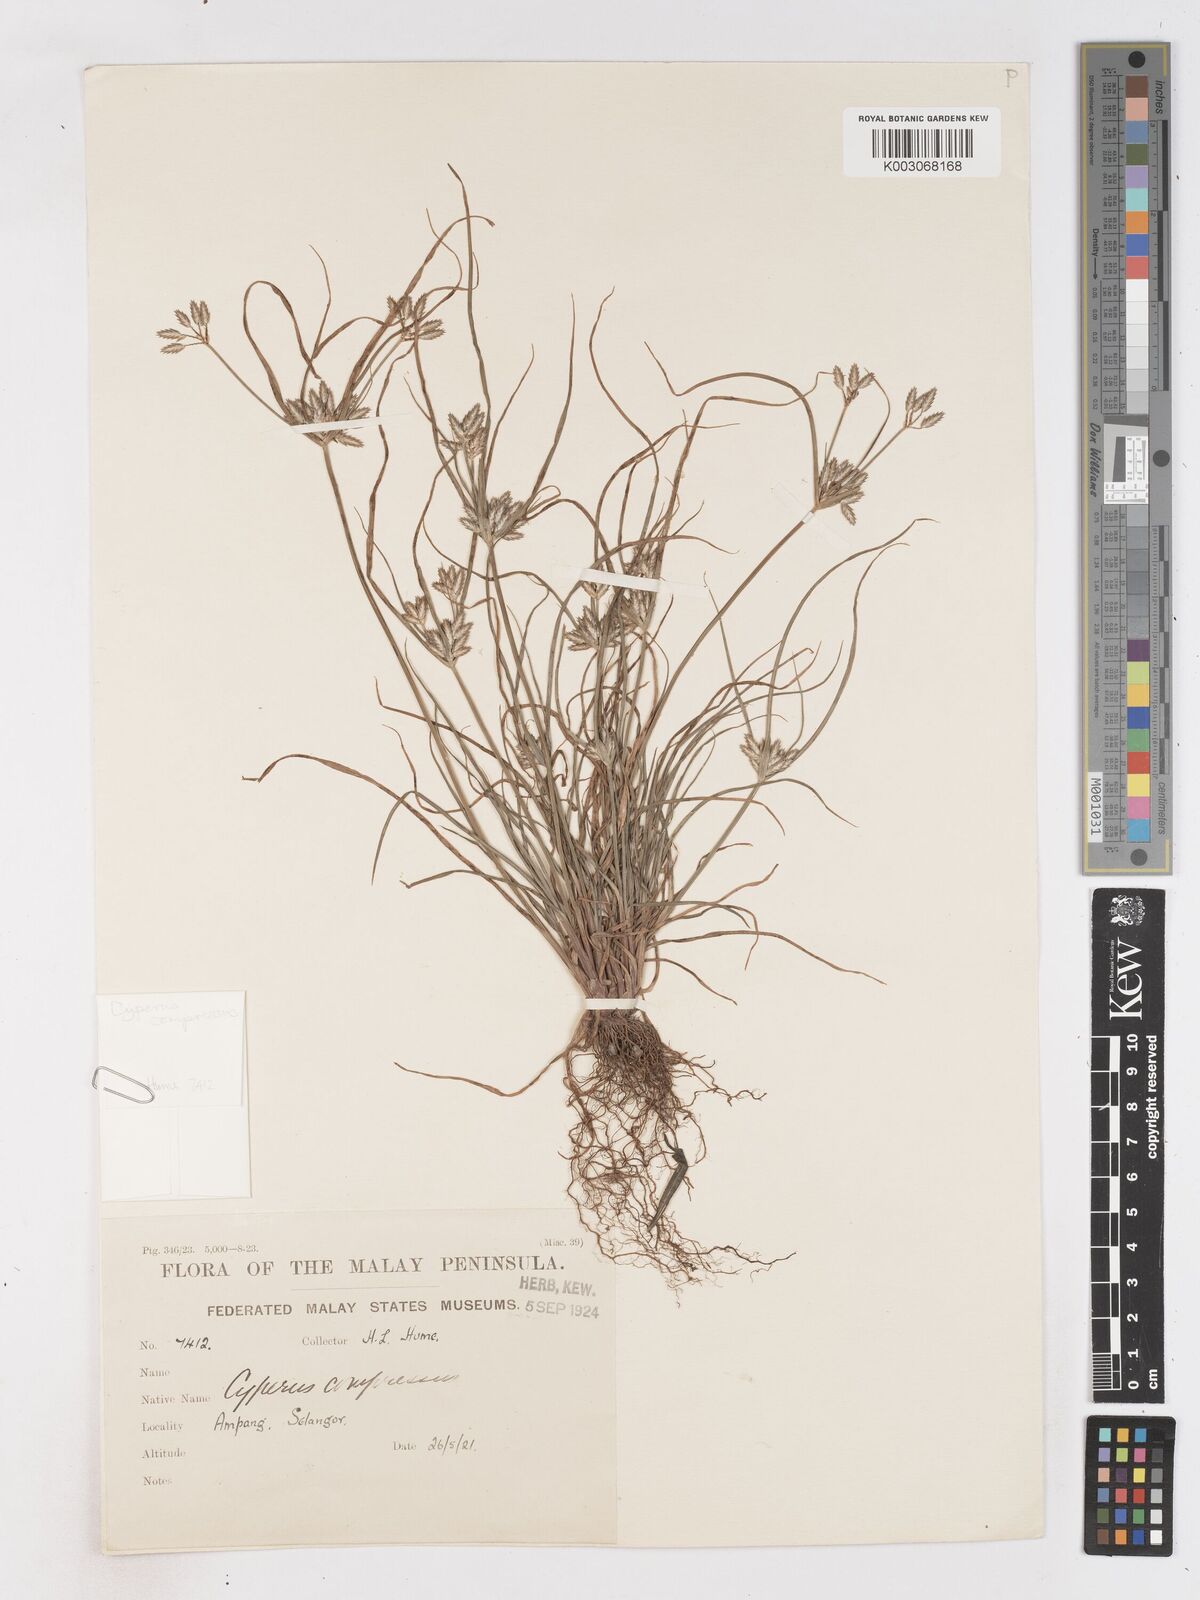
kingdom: Plantae
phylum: Tracheophyta
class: Liliopsida
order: Poales
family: Cyperaceae
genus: Cyperus
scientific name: Cyperus compressus
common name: Poorland flatsedge
